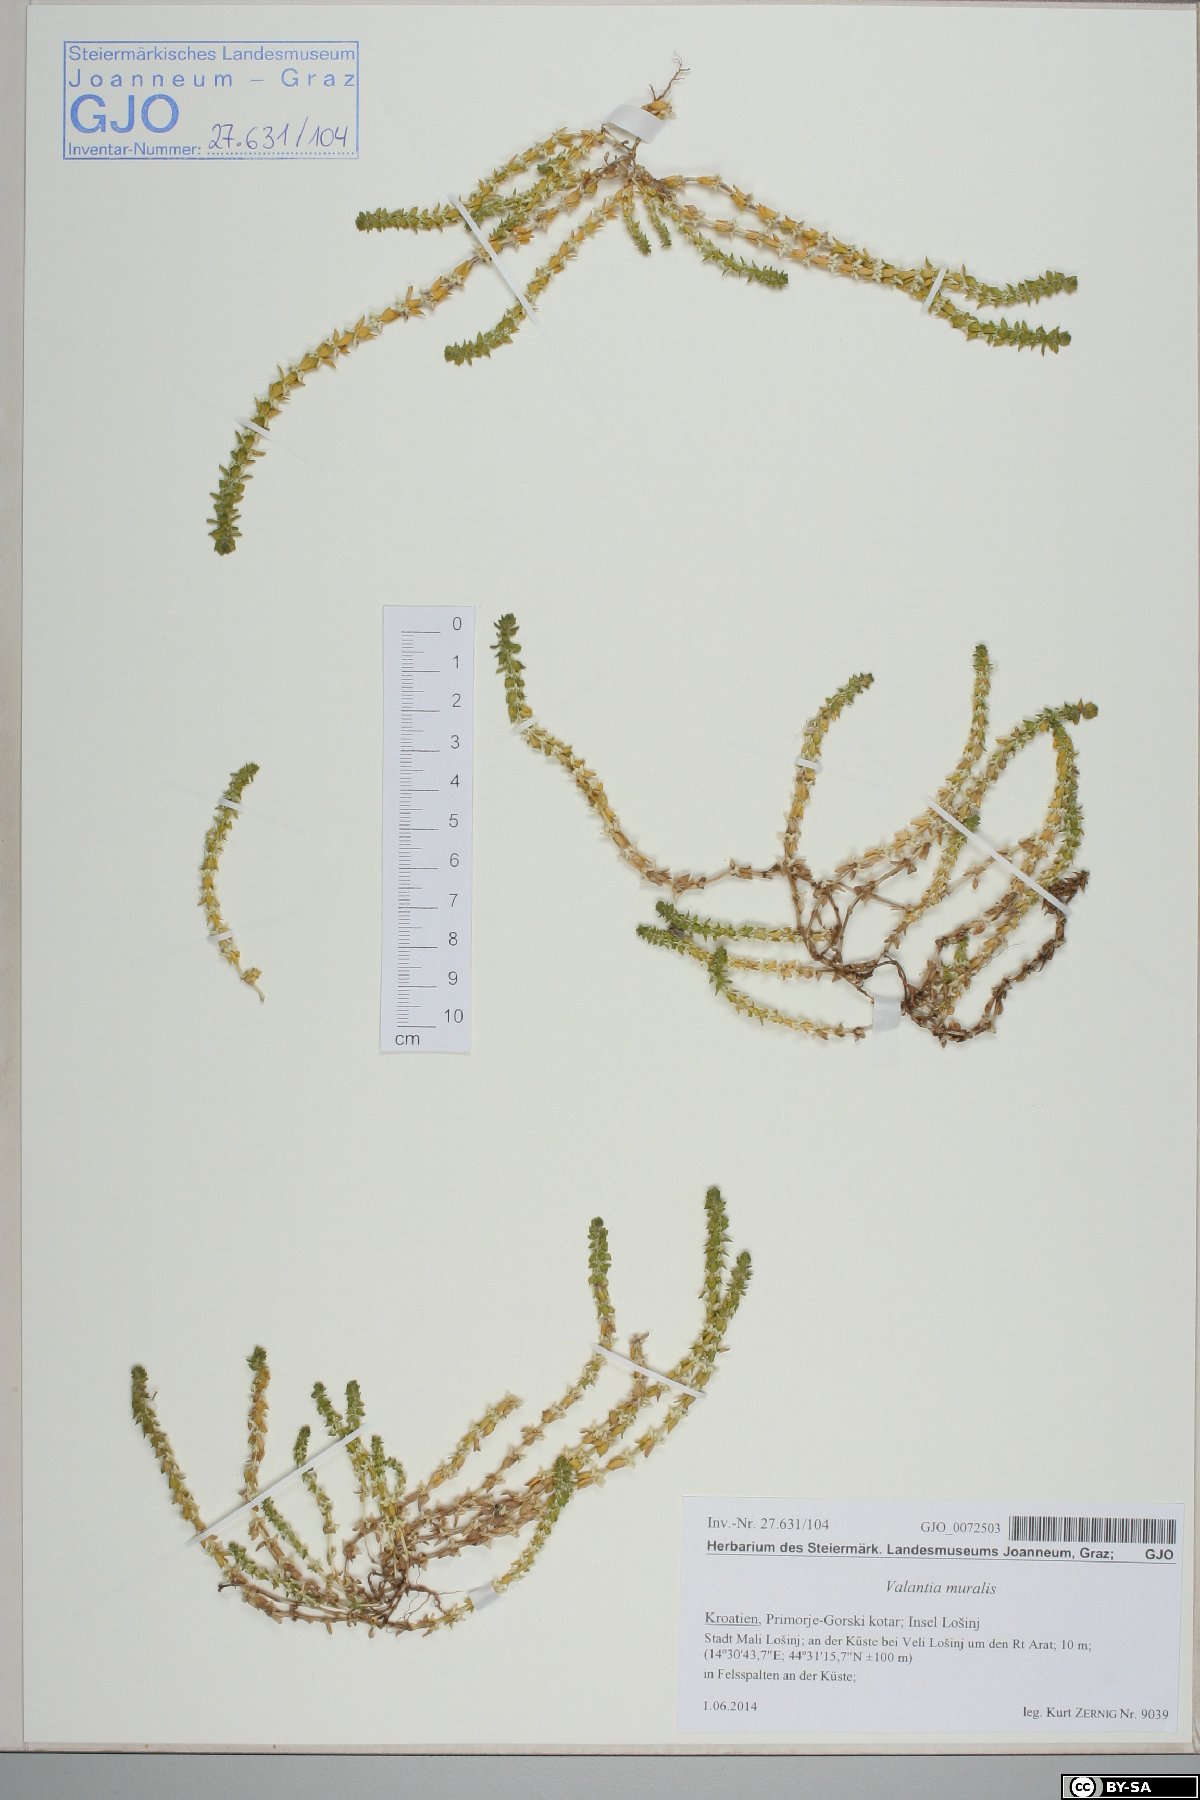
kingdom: Plantae
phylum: Tracheophyta
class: Magnoliopsida
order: Gentianales
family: Rubiaceae
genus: Valantia
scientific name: Valantia muralis
